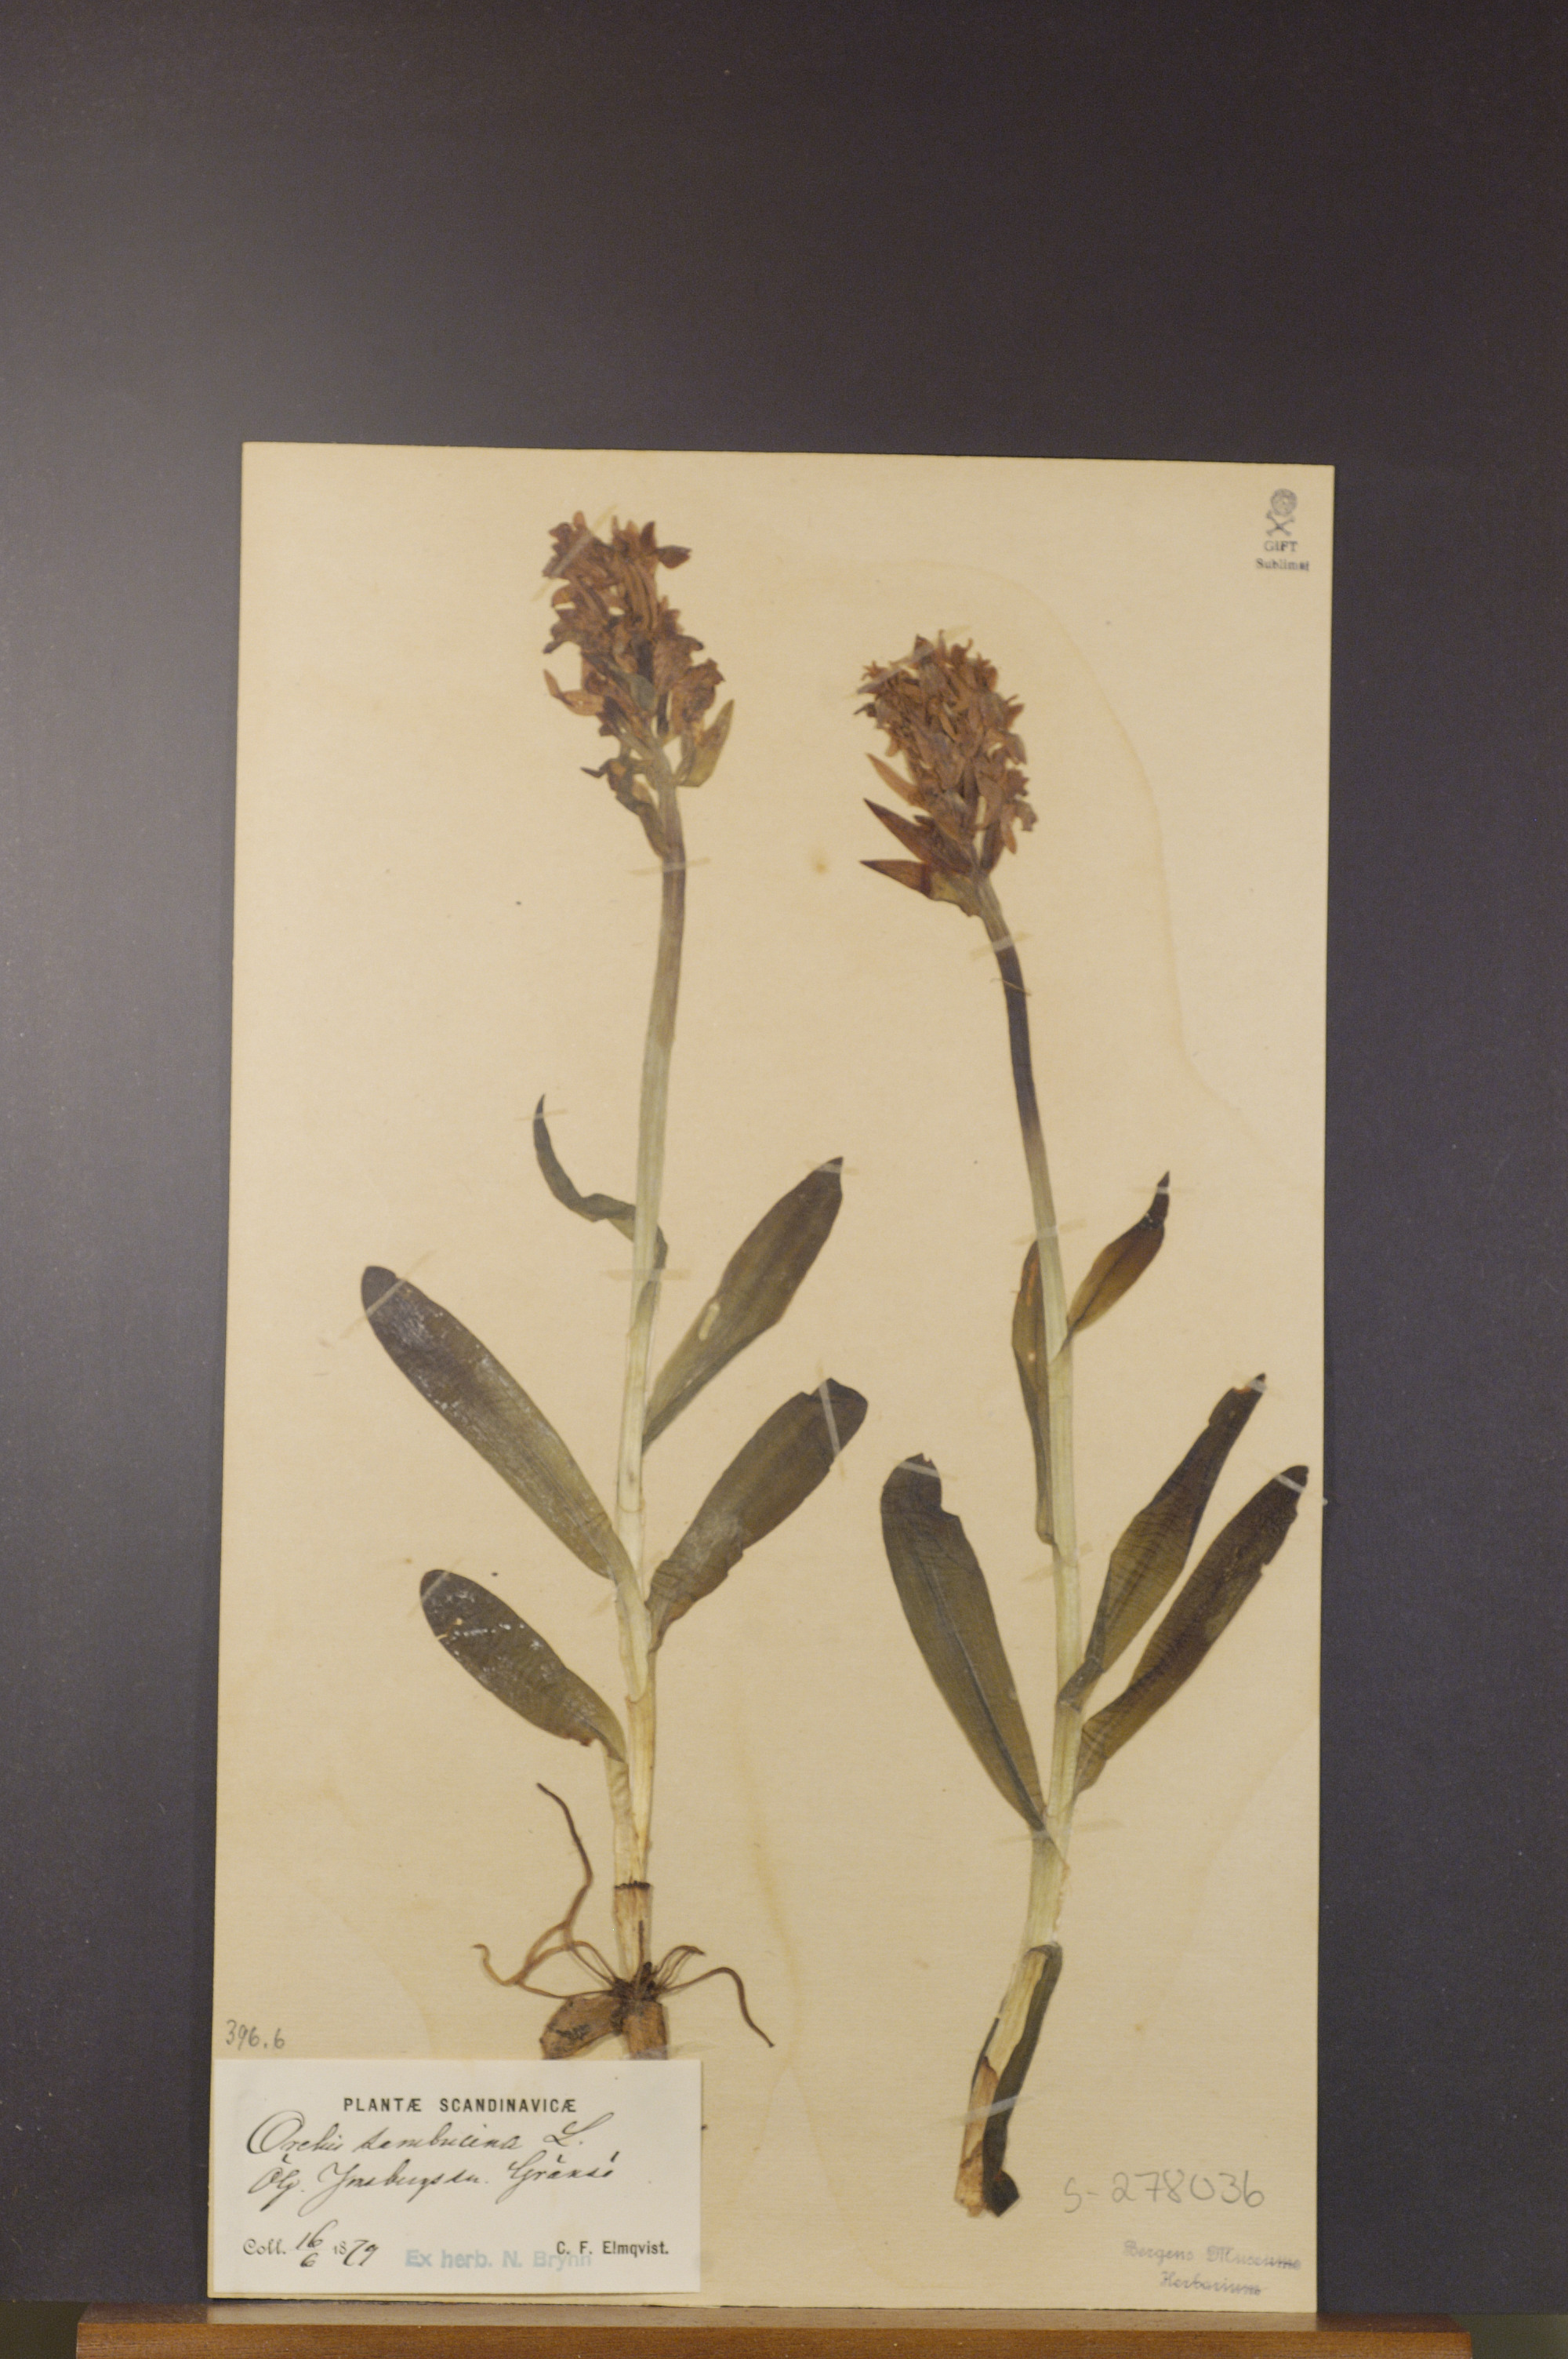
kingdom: Plantae
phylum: Tracheophyta
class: Liliopsida
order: Asparagales
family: Orchidaceae
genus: Dactylorhiza
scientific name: Dactylorhiza sambucina
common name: Elder-flowered orchid
